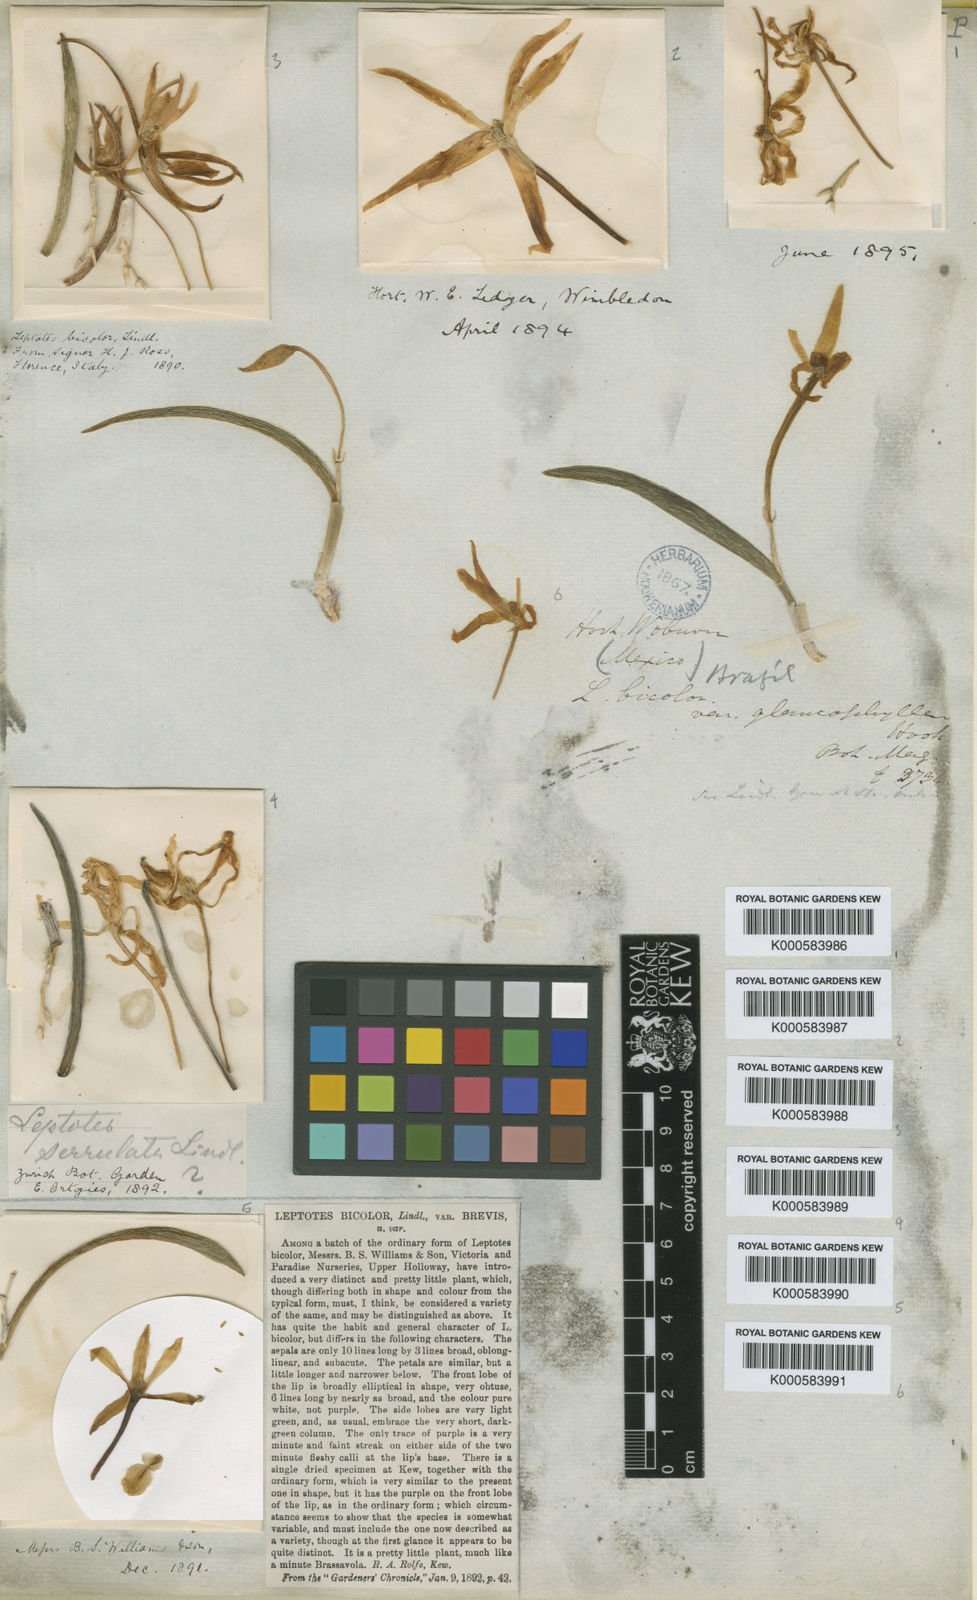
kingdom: Plantae
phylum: Tracheophyta
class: Liliopsida
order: Asparagales
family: Orchidaceae
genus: Leptotes
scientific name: Leptotes bicolor
